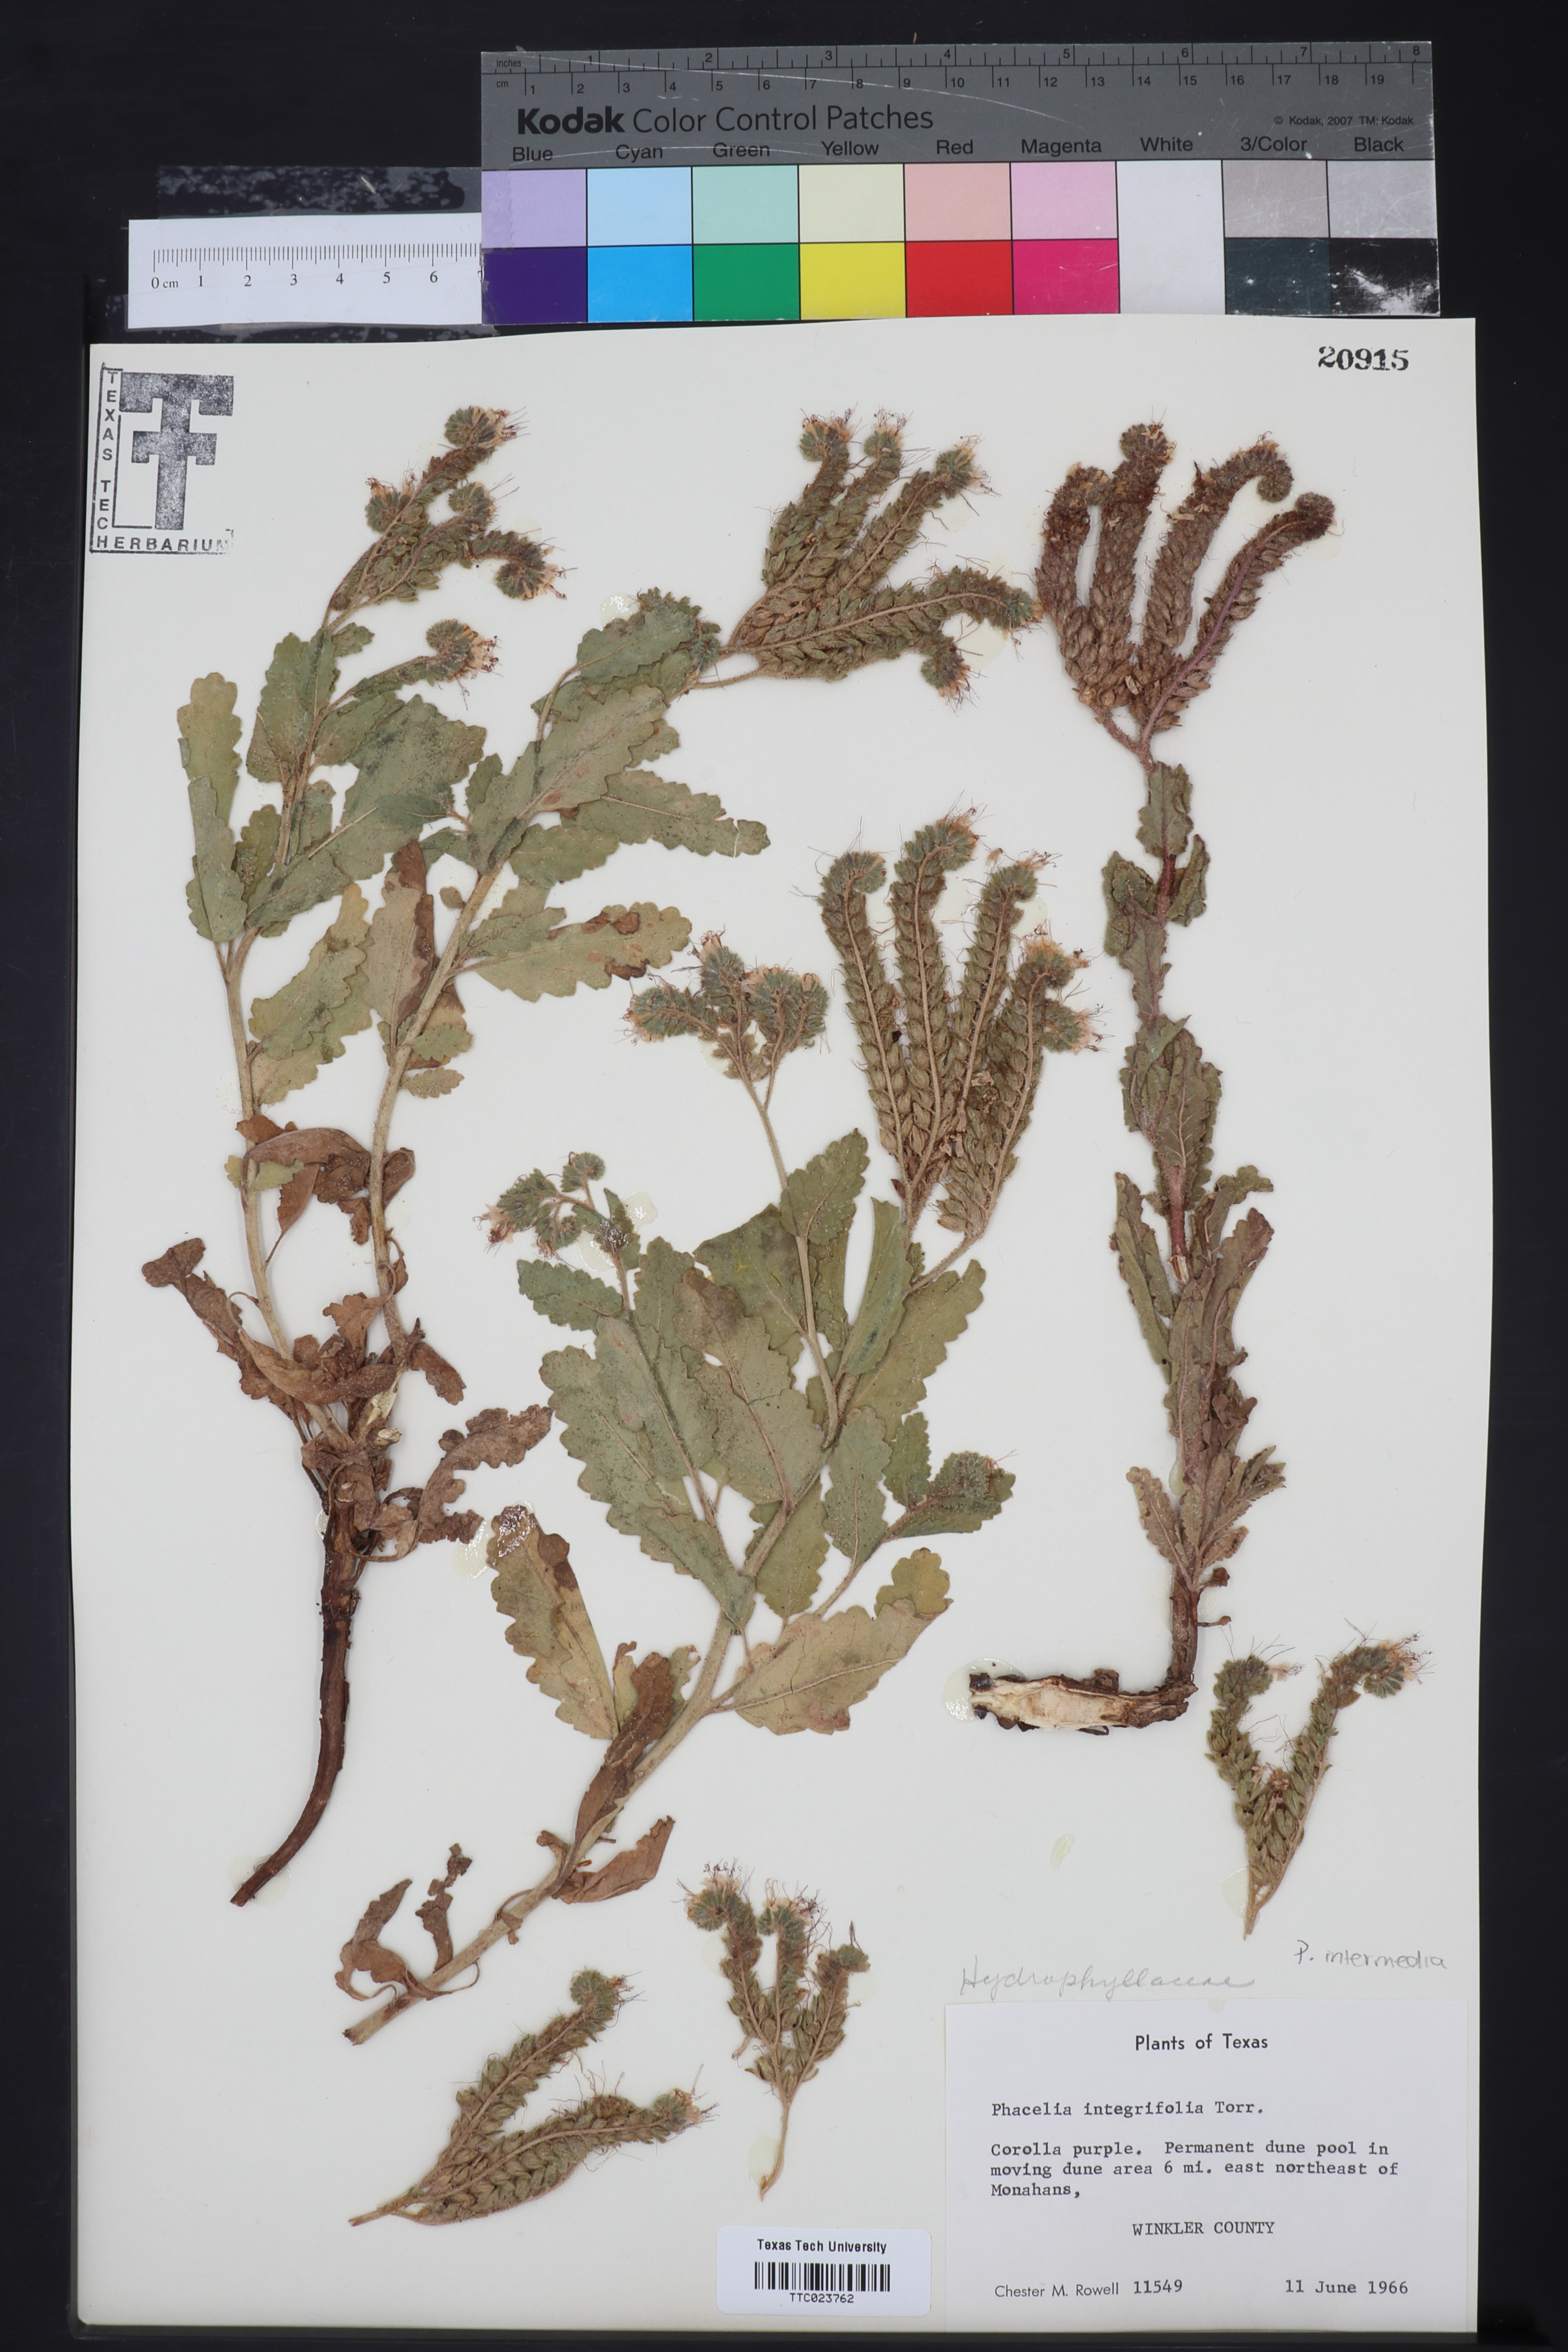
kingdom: Plantae
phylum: Tracheophyta
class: Magnoliopsida
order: Boraginales
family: Hydrophyllaceae
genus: Phacelia
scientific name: Phacelia integrifolia
